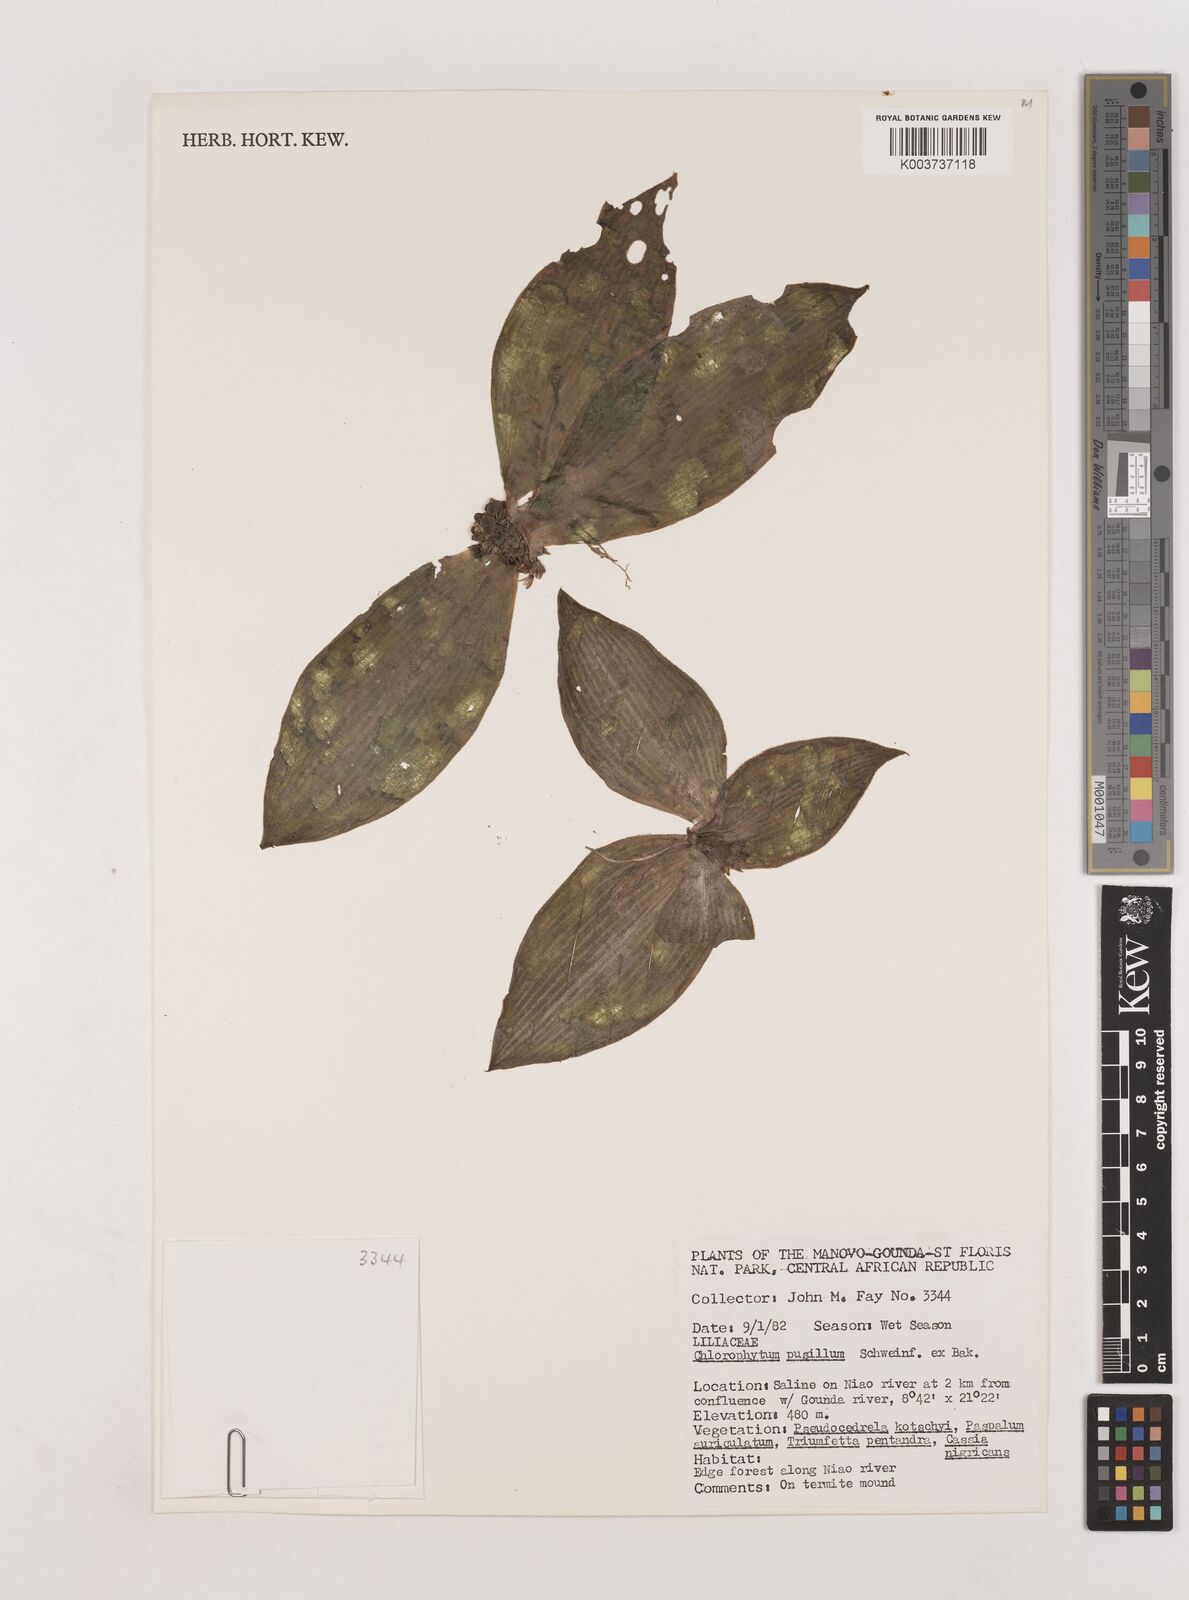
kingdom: Plantae
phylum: Tracheophyta
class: Liliopsida
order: Asparagales
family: Asparagaceae
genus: Chlorophytum
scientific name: Chlorophytum pusillum
